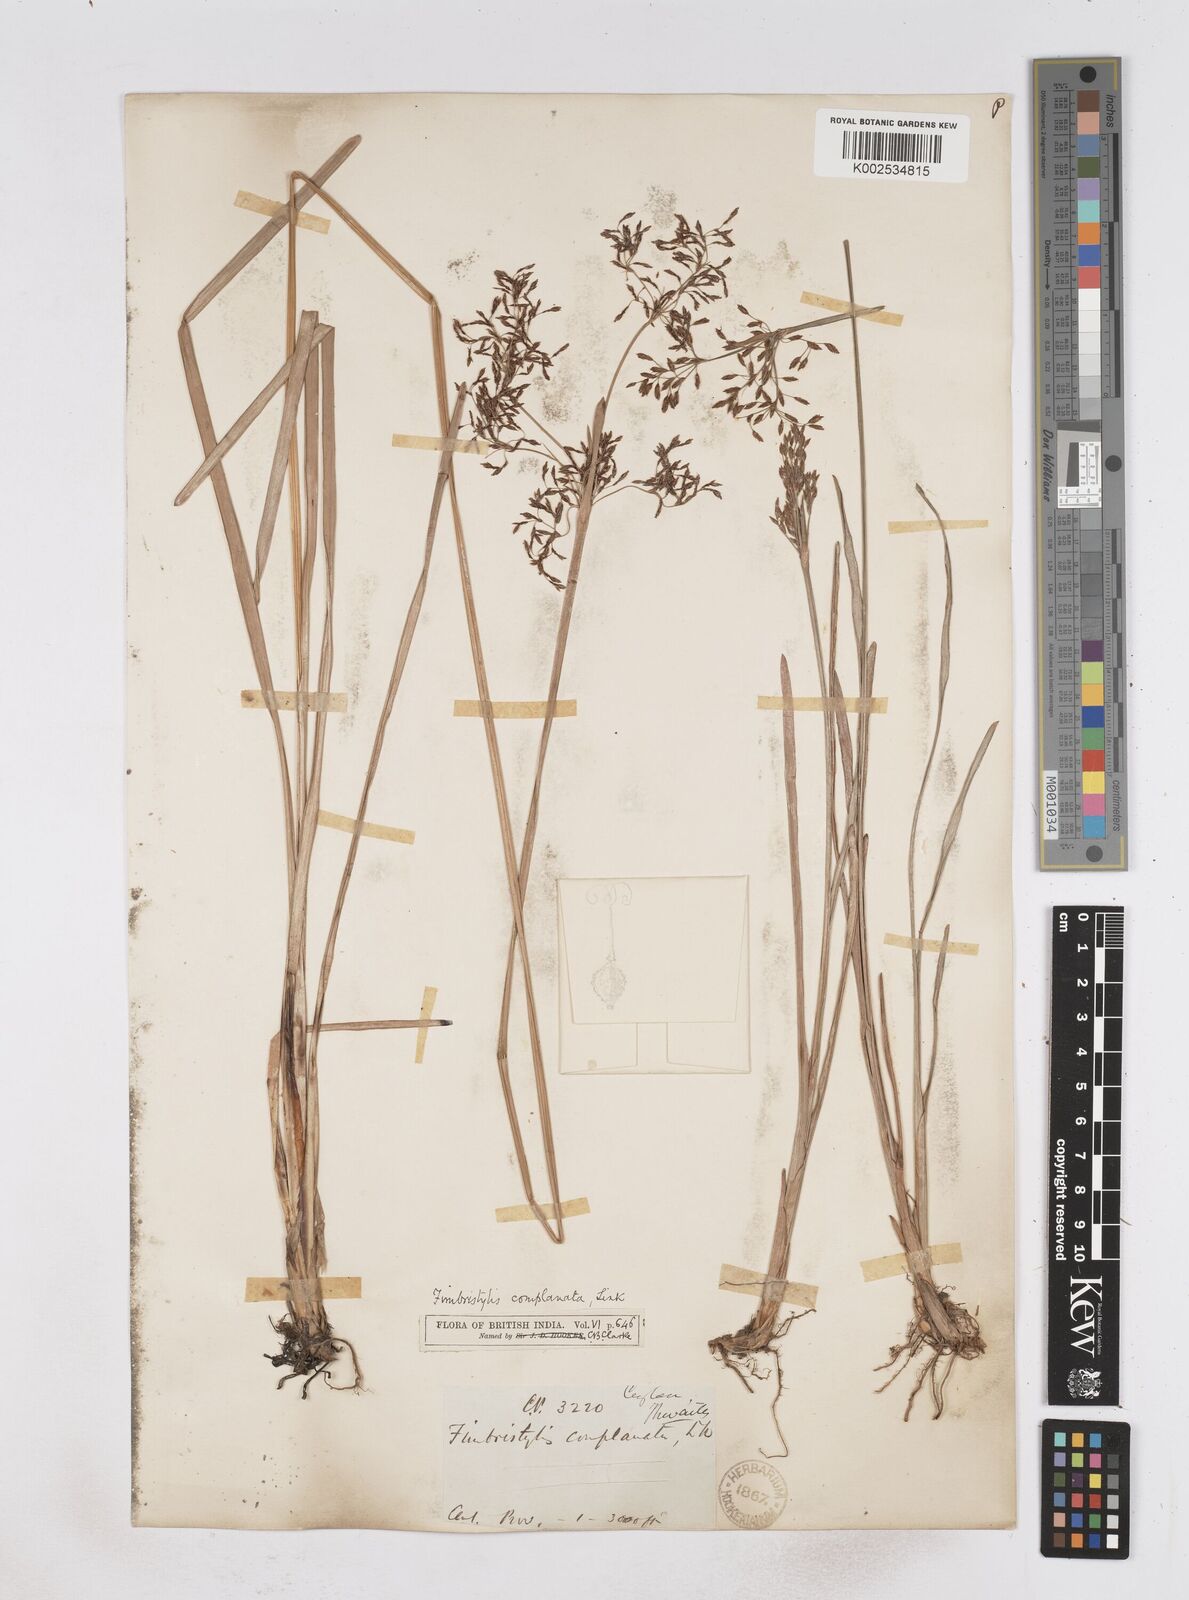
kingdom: Plantae
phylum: Tracheophyta
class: Liliopsida
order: Poales
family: Cyperaceae
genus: Fimbristylis
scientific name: Fimbristylis complanata
